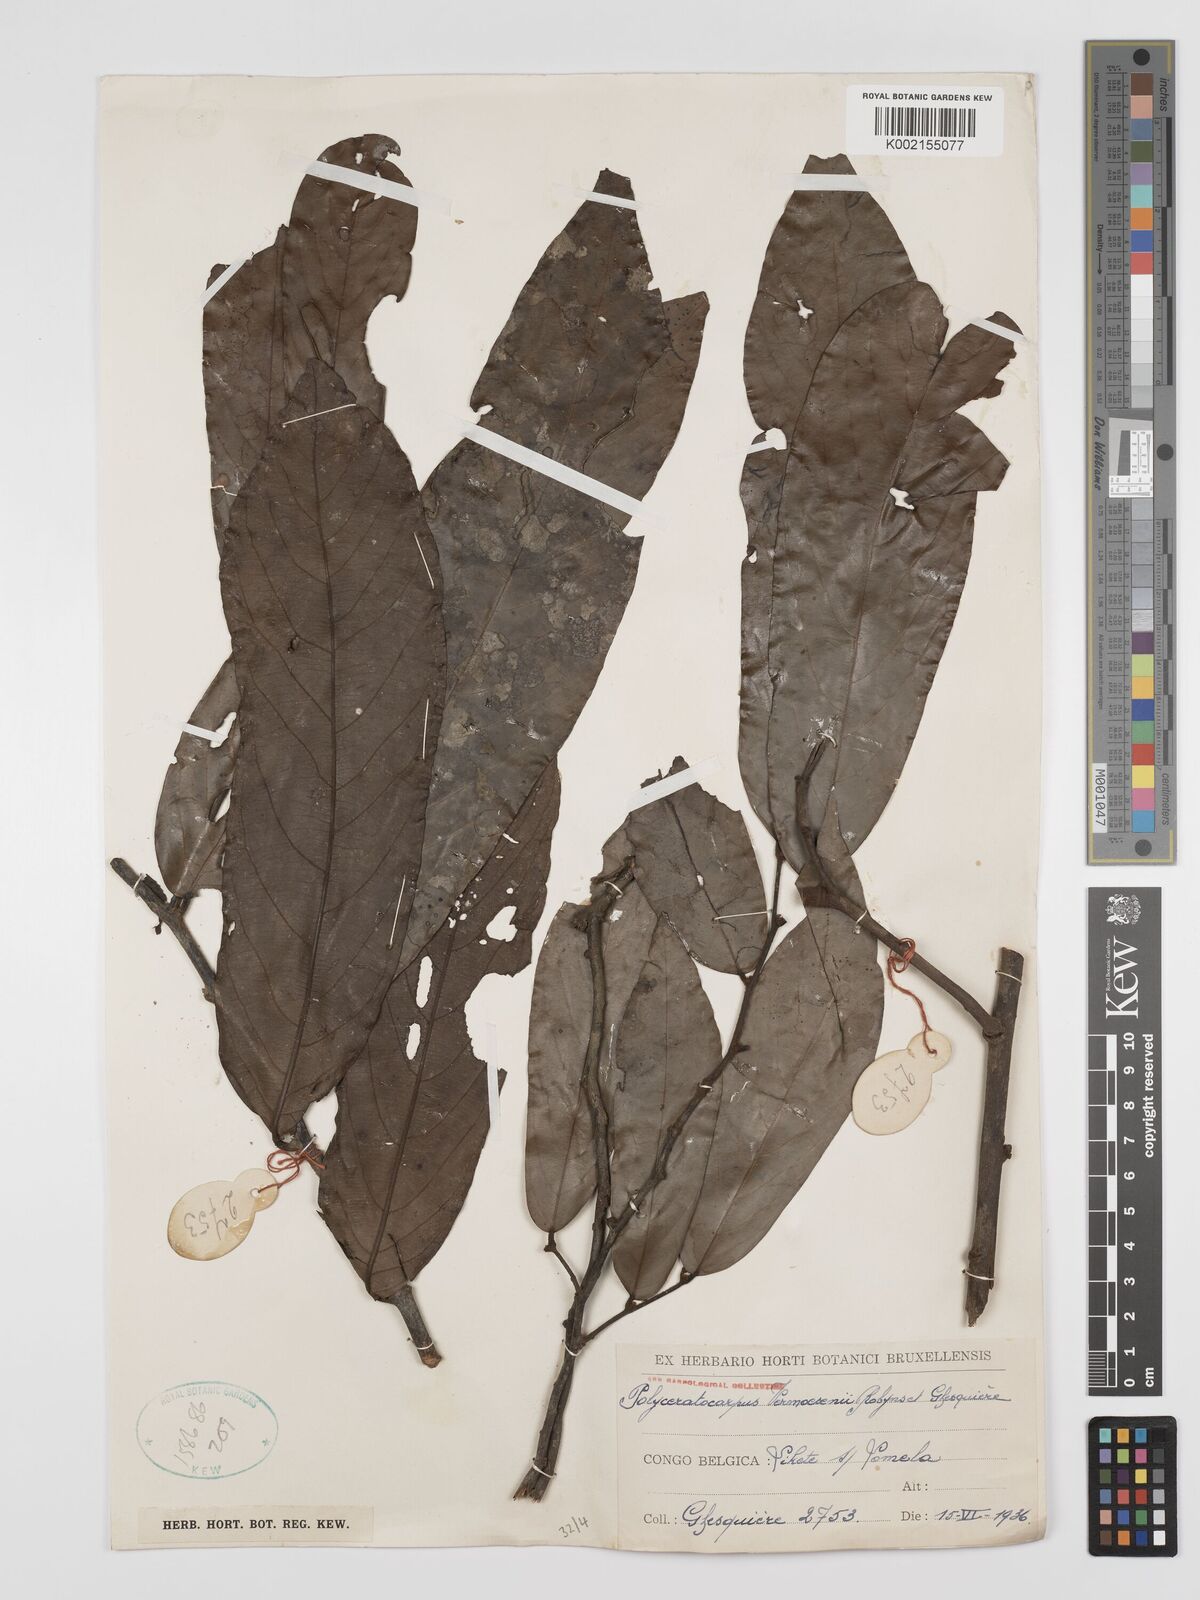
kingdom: Plantae
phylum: Tracheophyta
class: Magnoliopsida
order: Magnoliales
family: Annonaceae
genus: Polyceratocarpus
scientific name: Polyceratocarpus gossweileri
